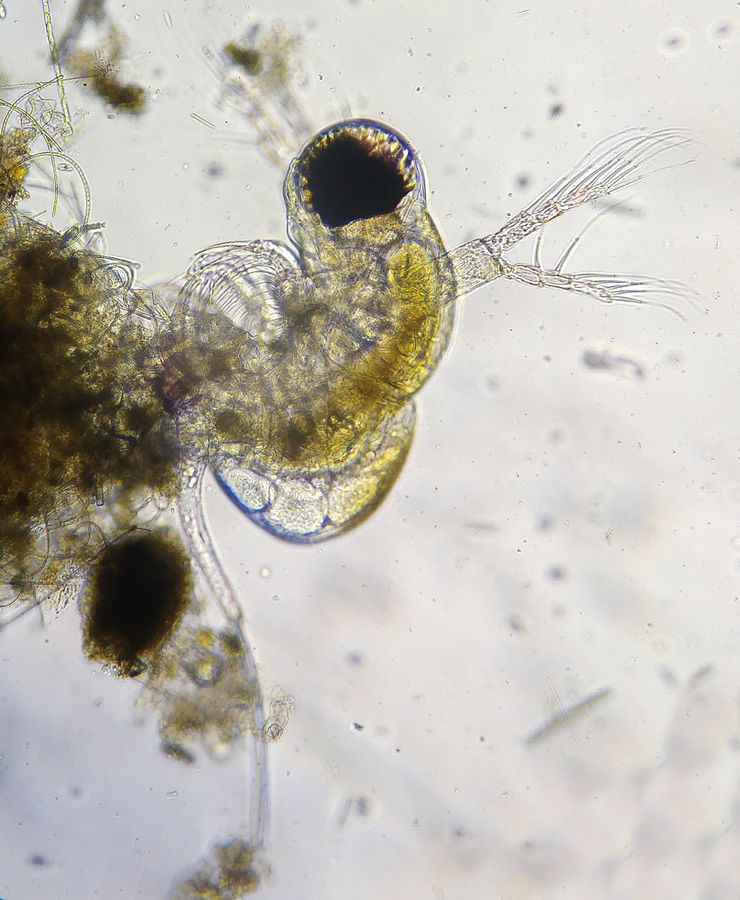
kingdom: Animalia
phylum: Arthropoda
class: Branchiopoda
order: Diplostraca
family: Polyphemidae
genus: Polyphemus
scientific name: Polyphemus pediculus
